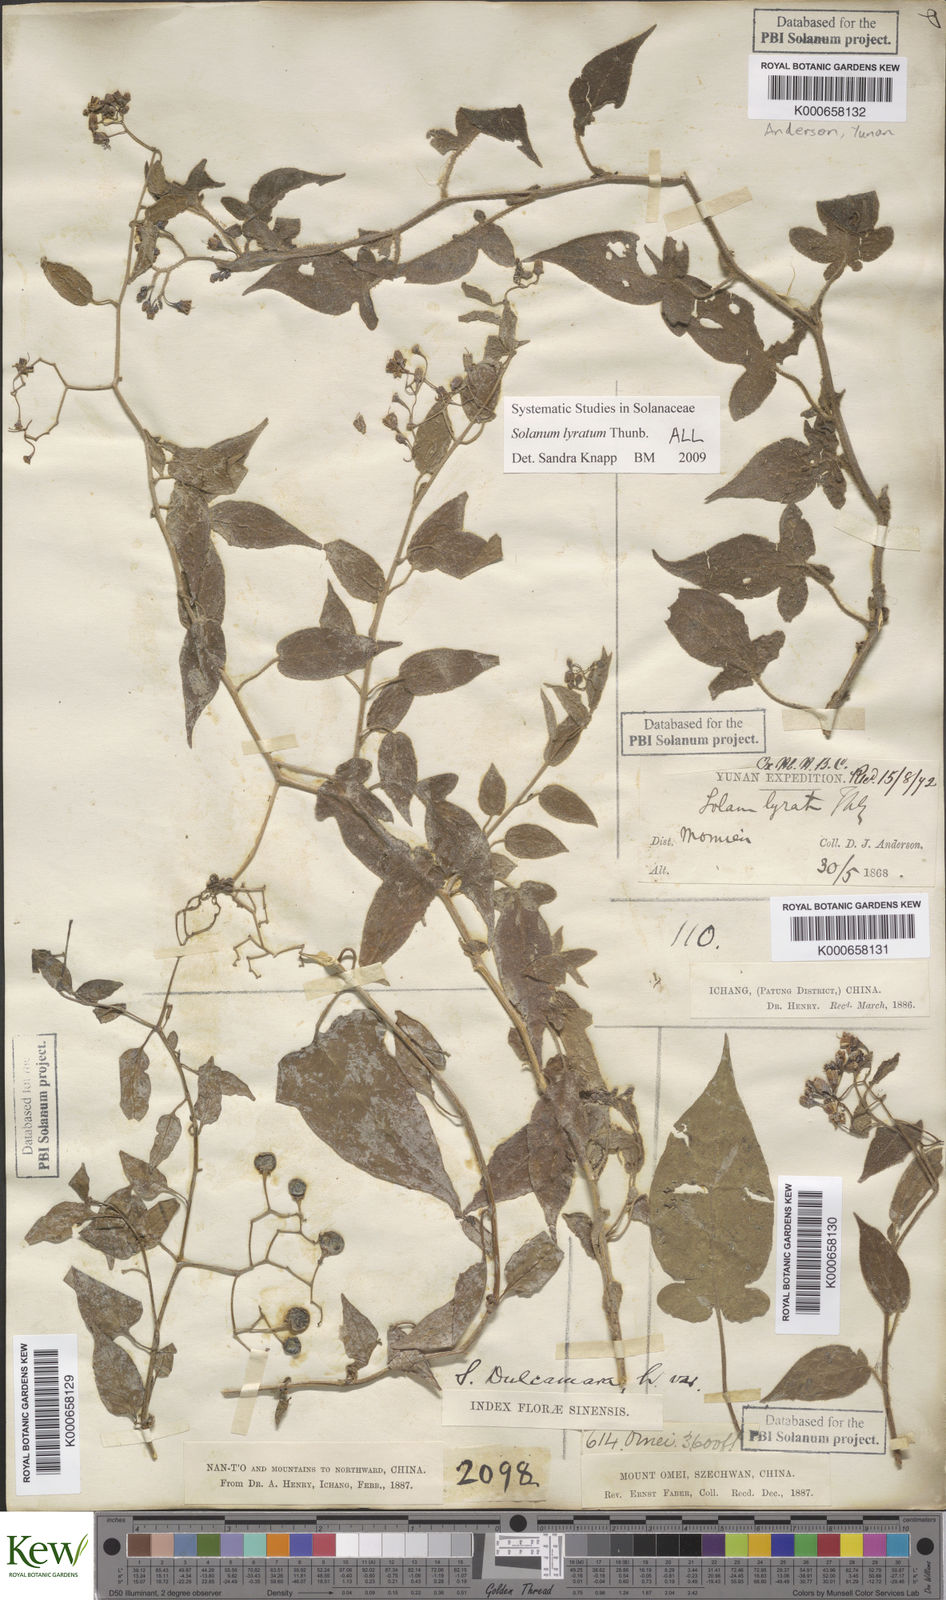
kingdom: Plantae
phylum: Tracheophyta
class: Magnoliopsida
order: Solanales
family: Solanaceae
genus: Solanum
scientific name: Solanum lyratum
